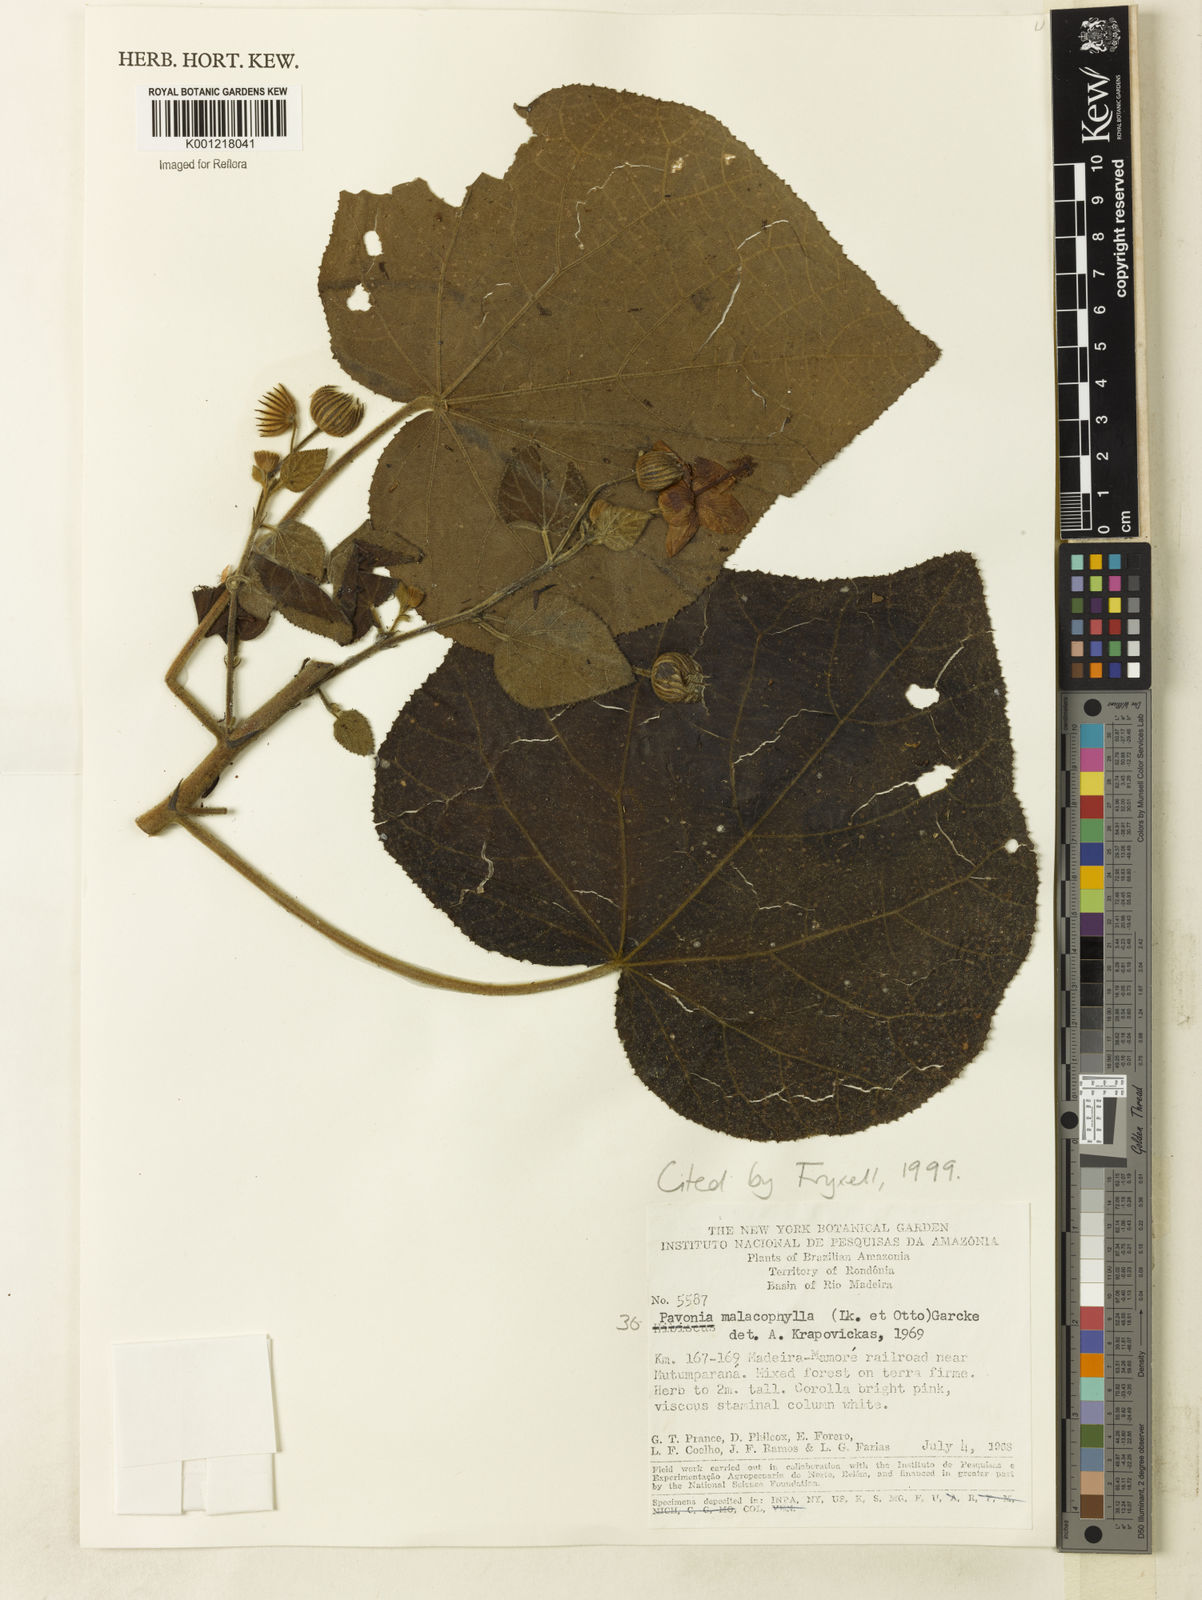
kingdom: Plantae
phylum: Tracheophyta
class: Magnoliopsida
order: Malvales
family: Malvaceae
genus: Pavonia
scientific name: Pavonia malacophylla
